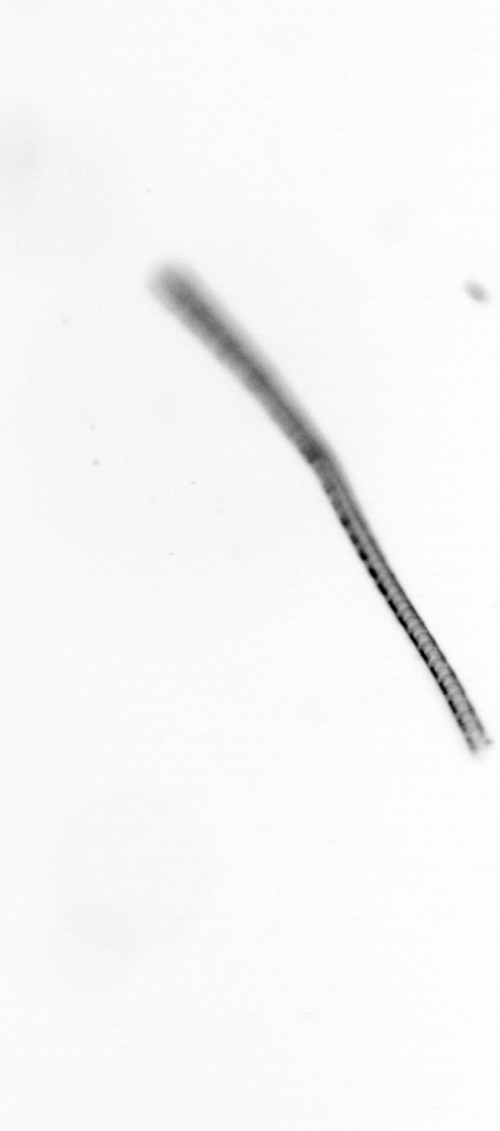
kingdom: Chromista
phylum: Ochrophyta
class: Bacillariophyceae
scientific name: Bacillariophyceae
